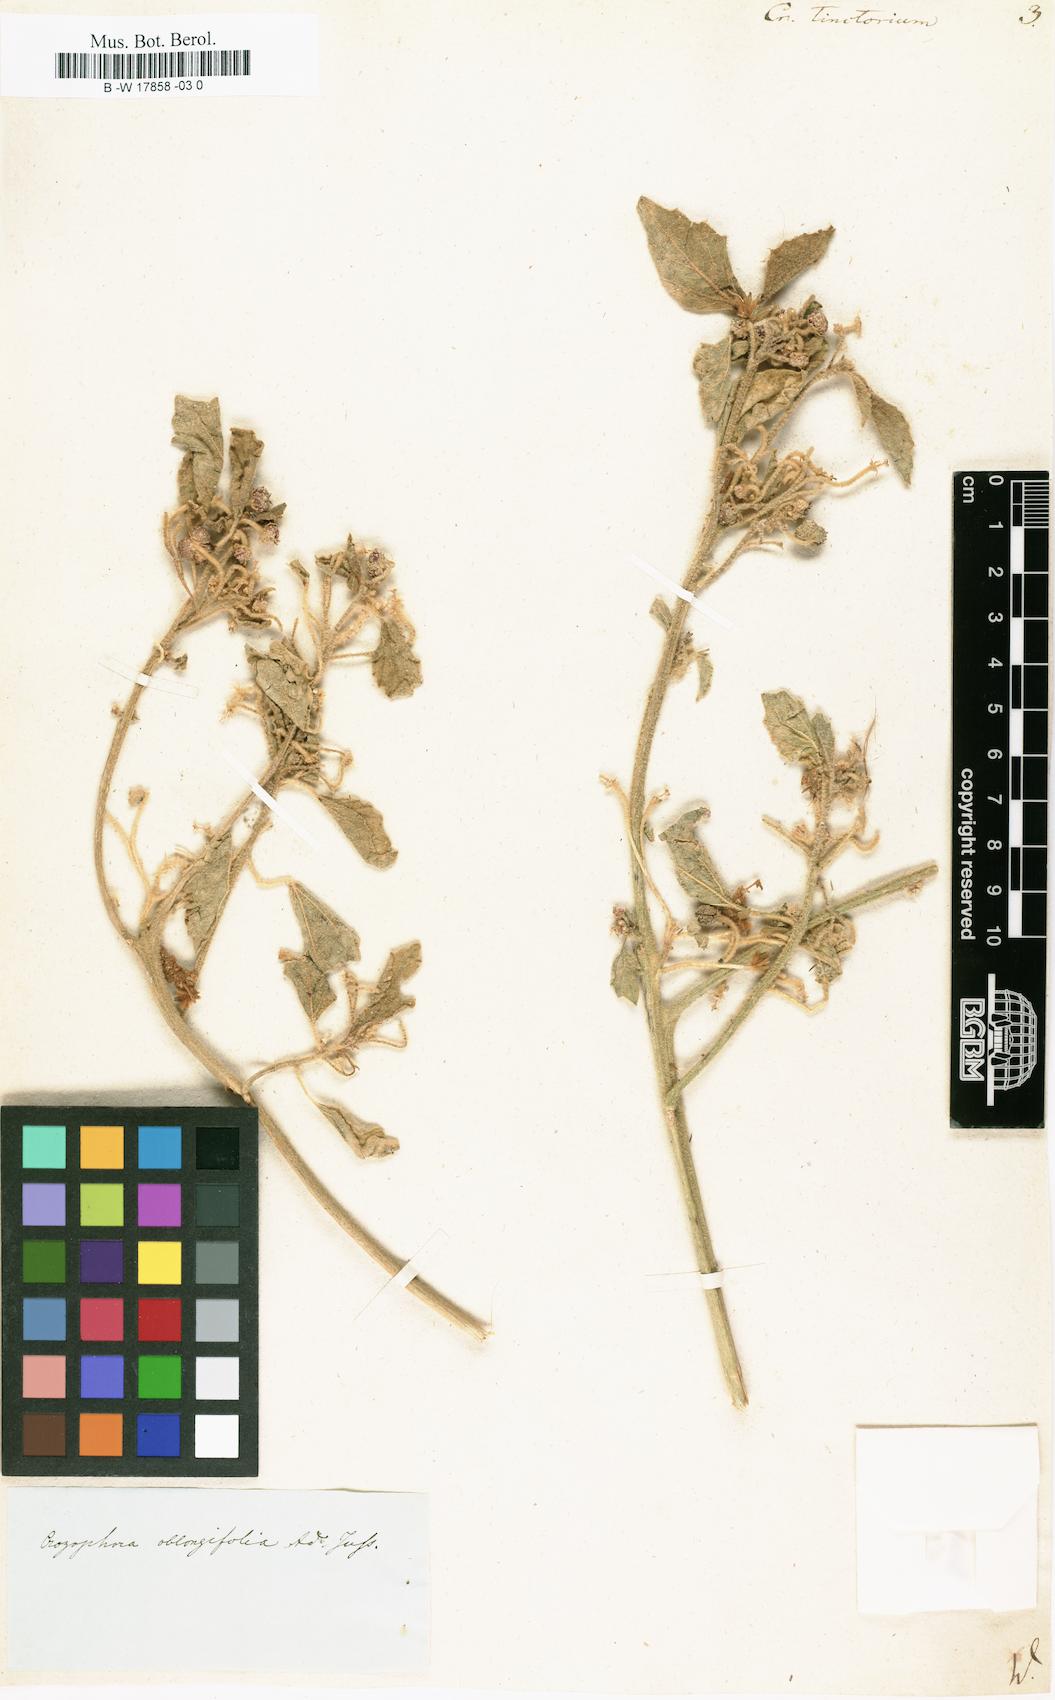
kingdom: Plantae
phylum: Tracheophyta
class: Magnoliopsida
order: Malpighiales
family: Euphorbiaceae
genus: Chrozophora
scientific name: Chrozophora
